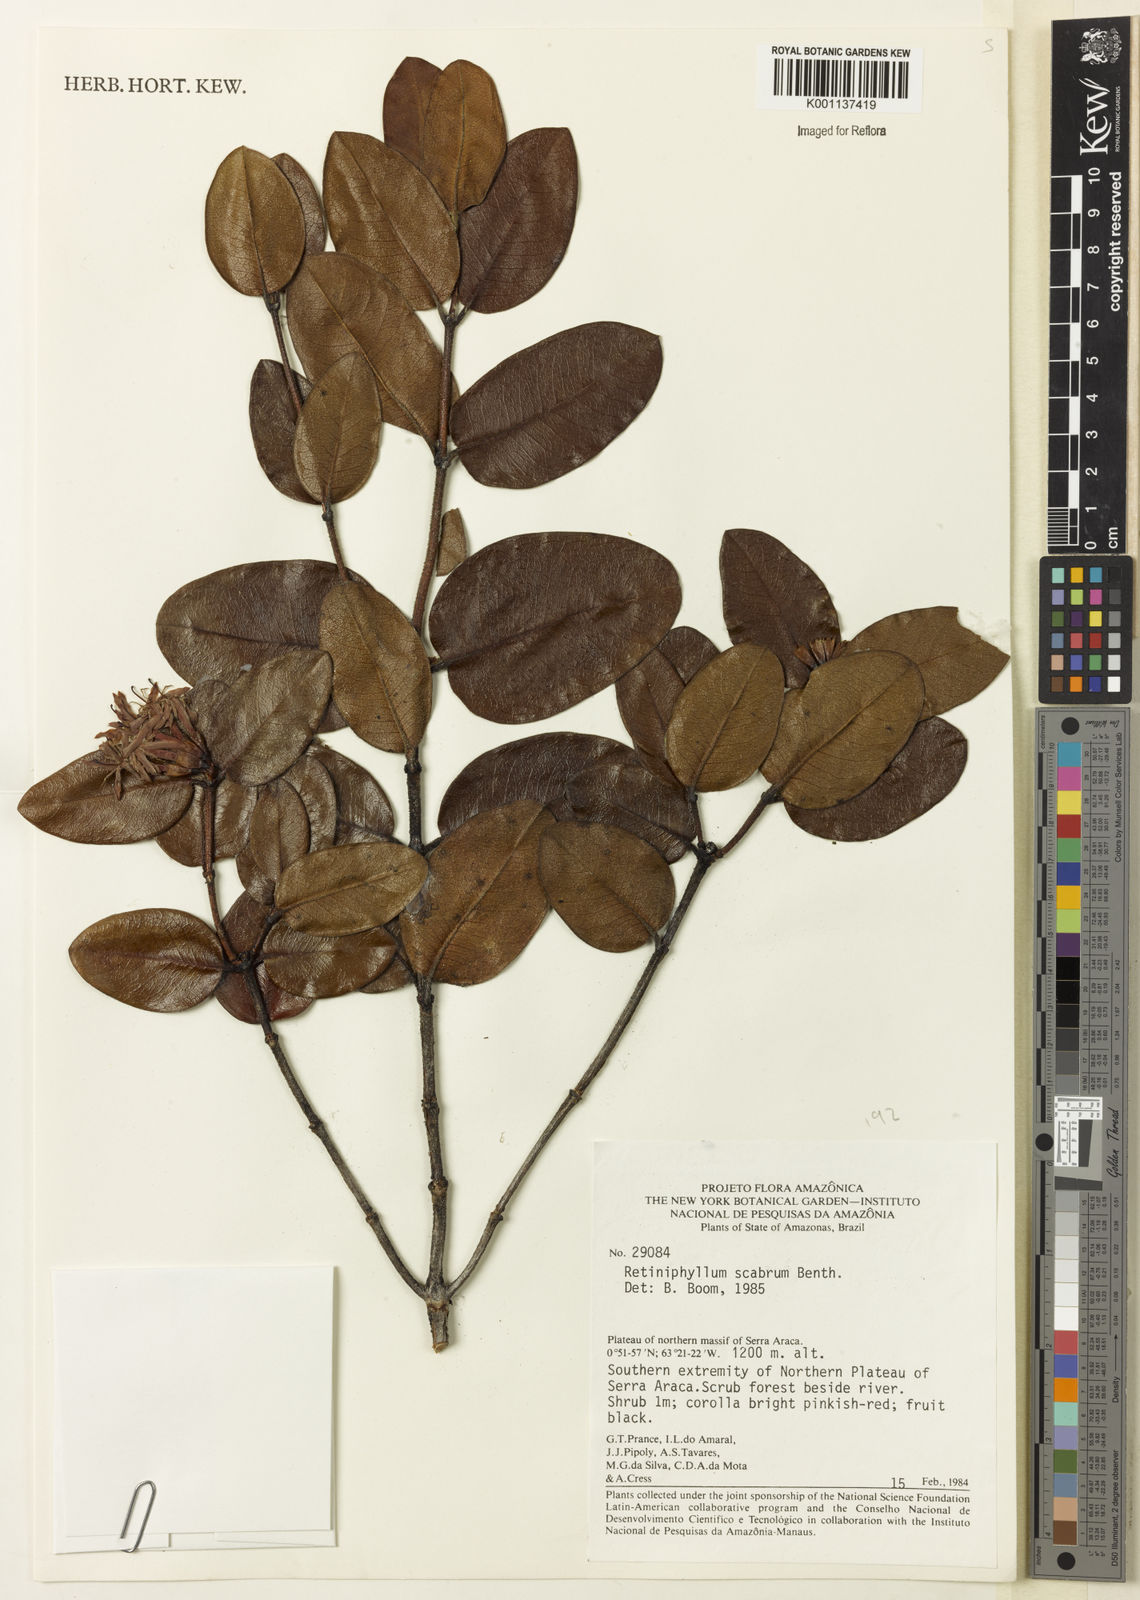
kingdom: Plantae
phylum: Tracheophyta
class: Magnoliopsida
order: Gentianales
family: Rubiaceae
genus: Retiniphyllum
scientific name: Retiniphyllum scabrum
